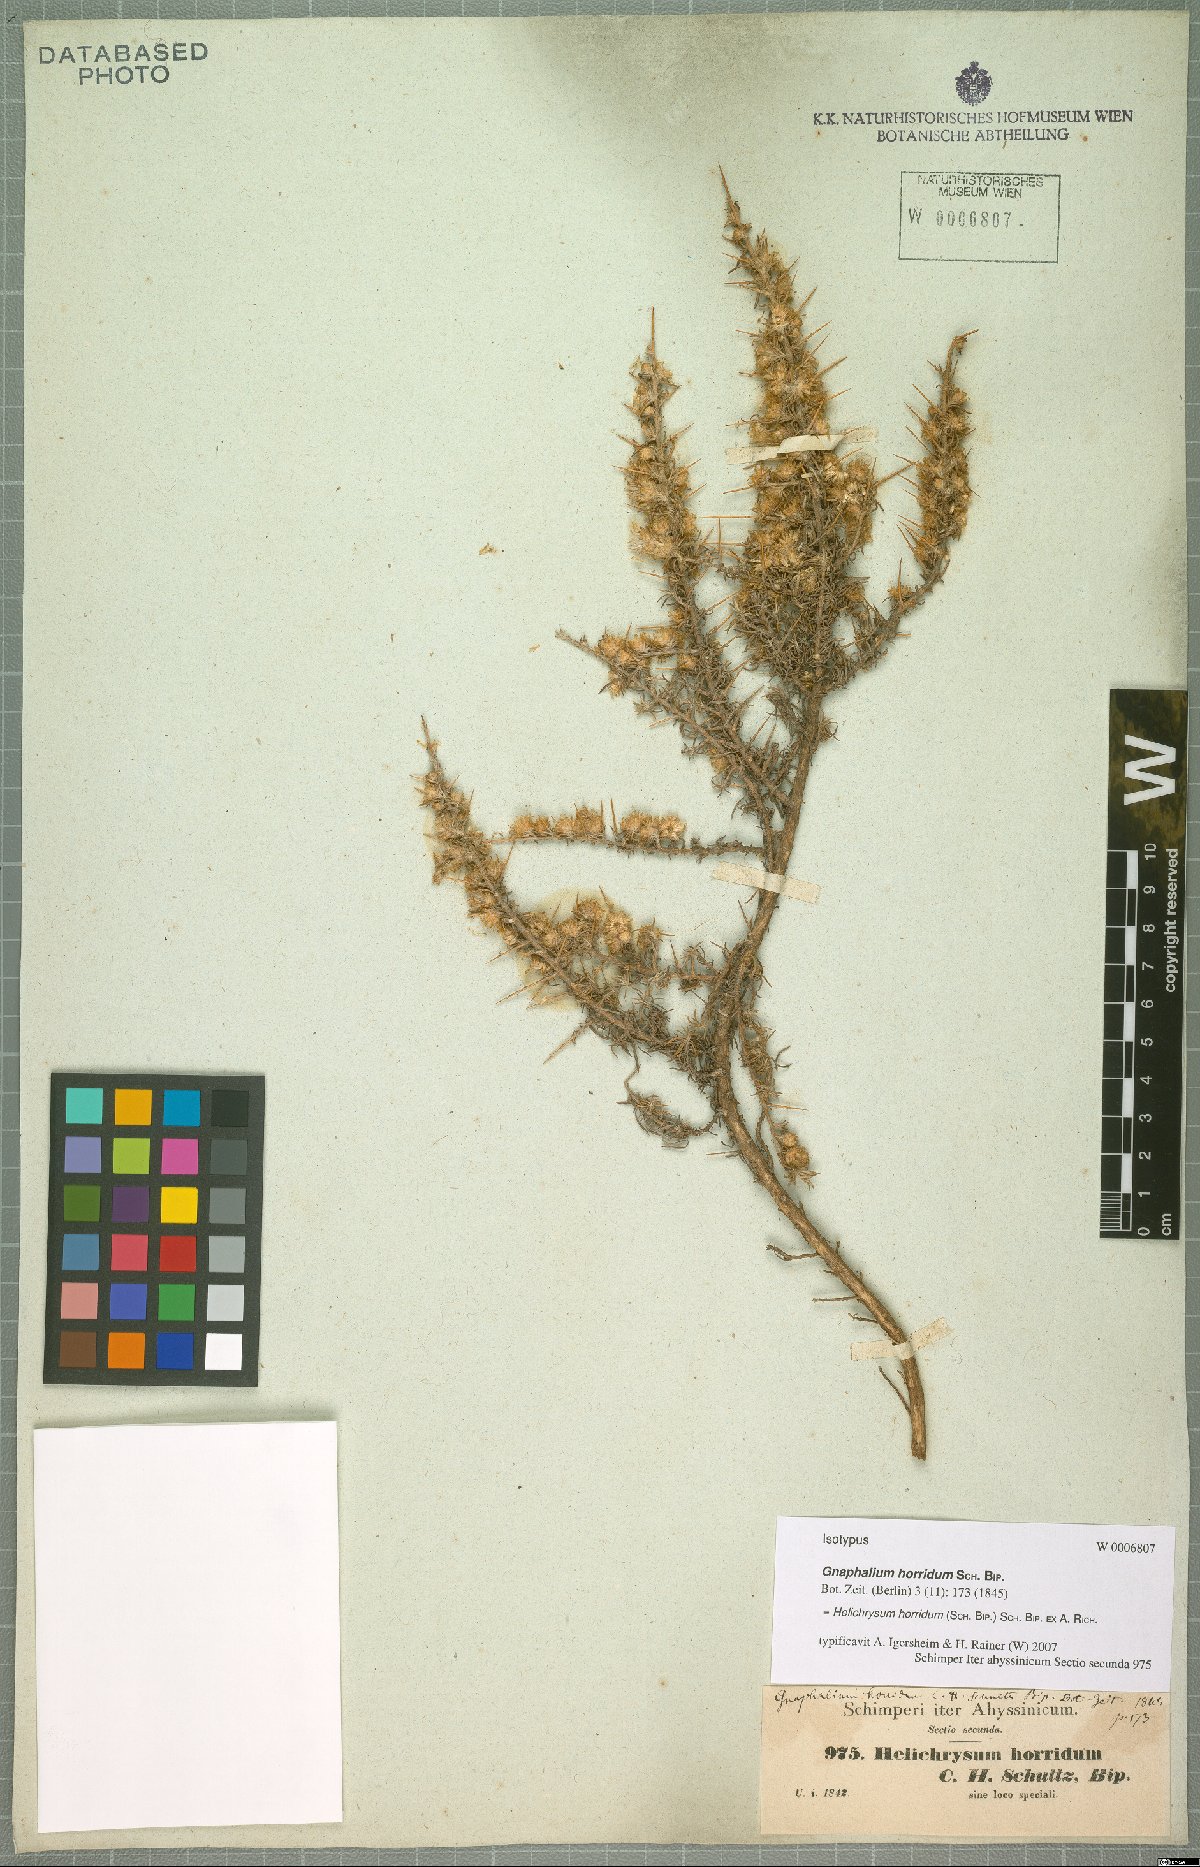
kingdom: Plantae
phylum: Tracheophyta
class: Magnoliopsida
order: Asterales
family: Asteraceae
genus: Helichrysum
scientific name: Helichrysum horridum
